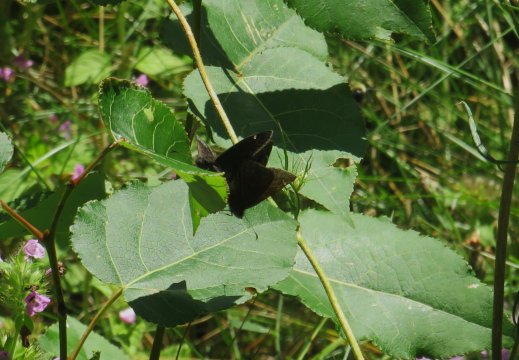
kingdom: Animalia
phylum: Arthropoda
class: Insecta
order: Lepidoptera
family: Hesperiidae
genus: Gesta
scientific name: Gesta
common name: Wild Indigo Duskywing
